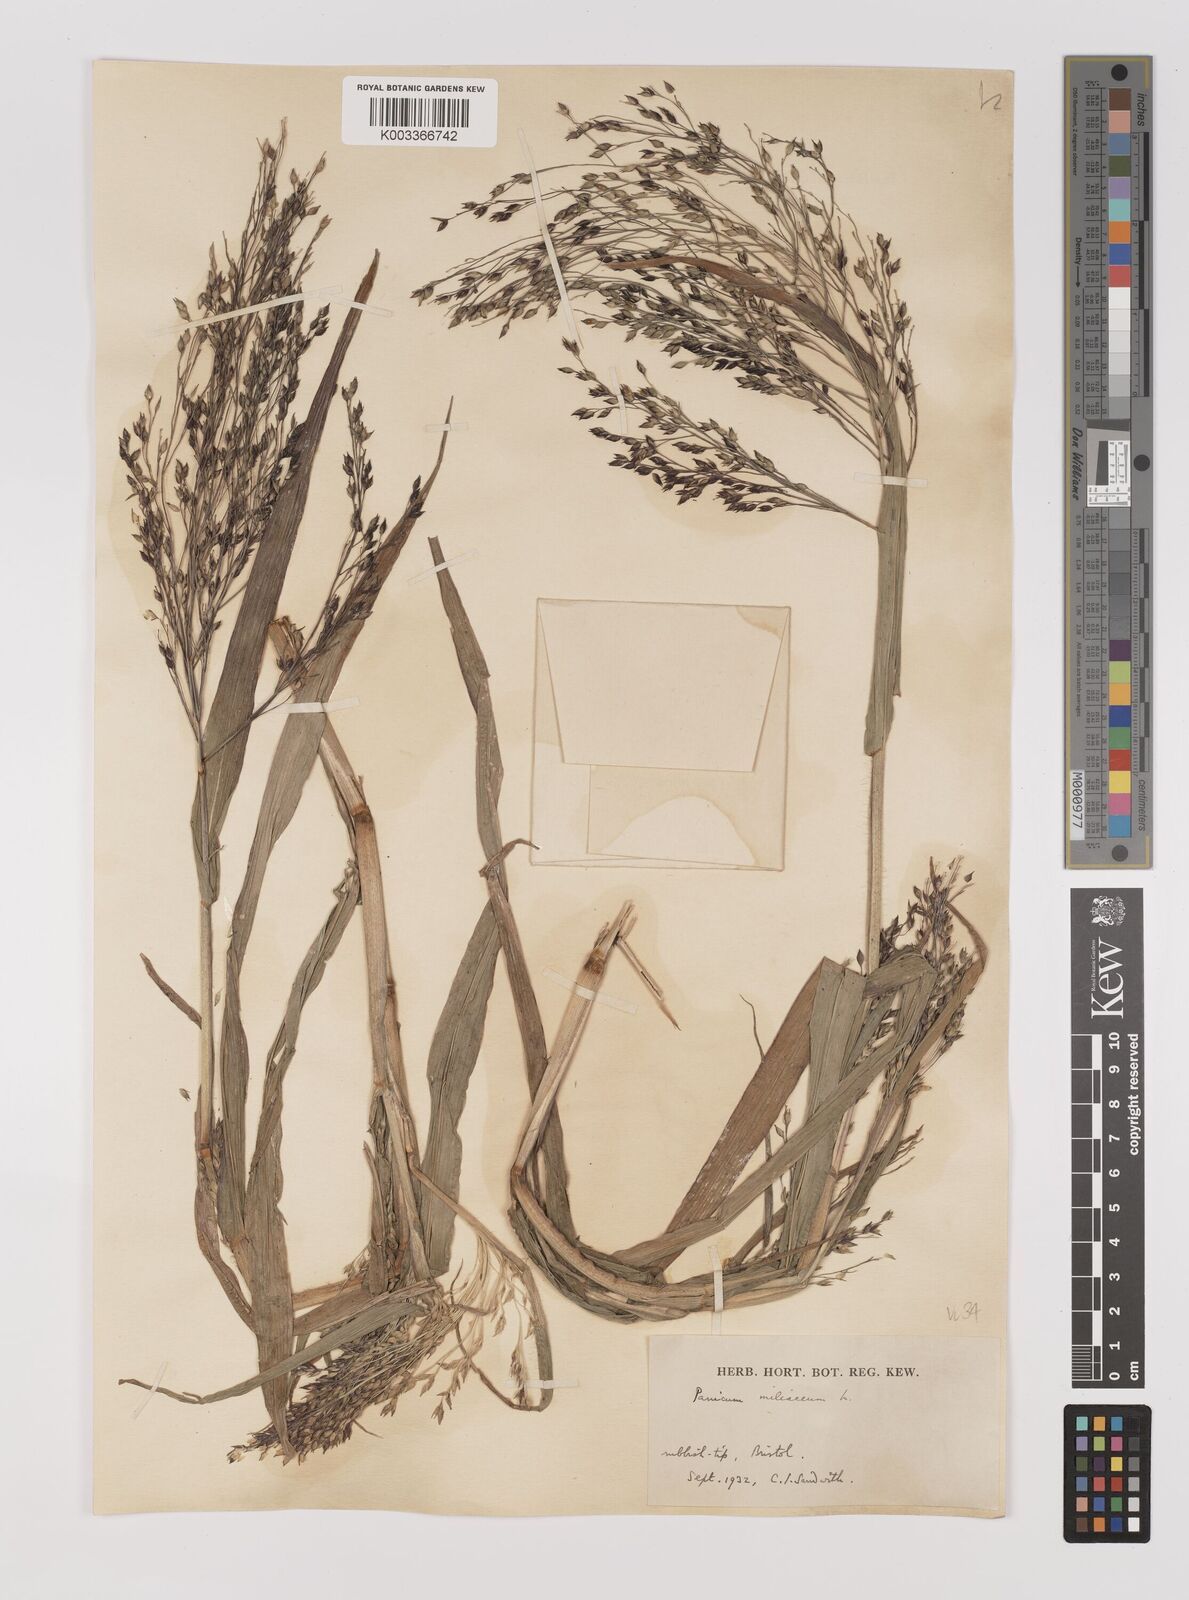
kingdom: Plantae
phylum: Tracheophyta
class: Liliopsida
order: Poales
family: Poaceae
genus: Panicum
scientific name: Panicum miliaceum
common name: Common millet
